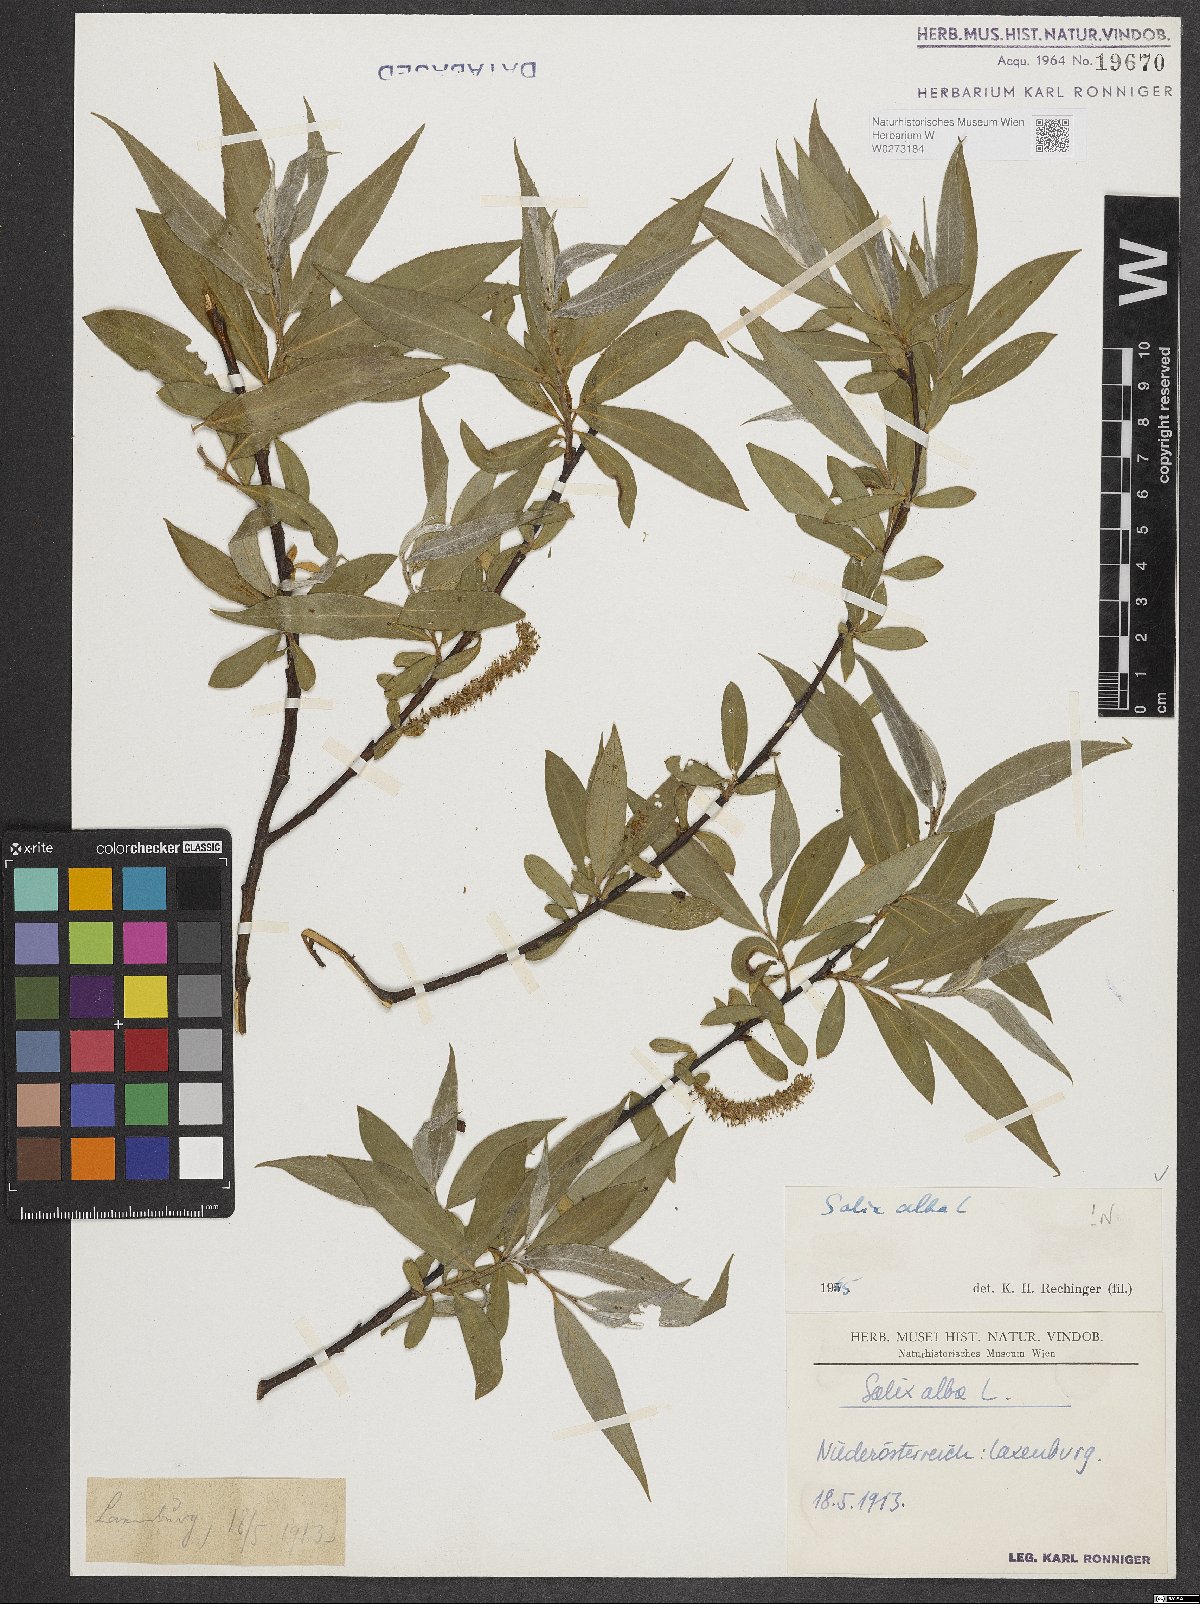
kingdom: Plantae
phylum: Tracheophyta
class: Magnoliopsida
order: Malpighiales
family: Salicaceae
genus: Salix
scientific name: Salix alba
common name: White willow
